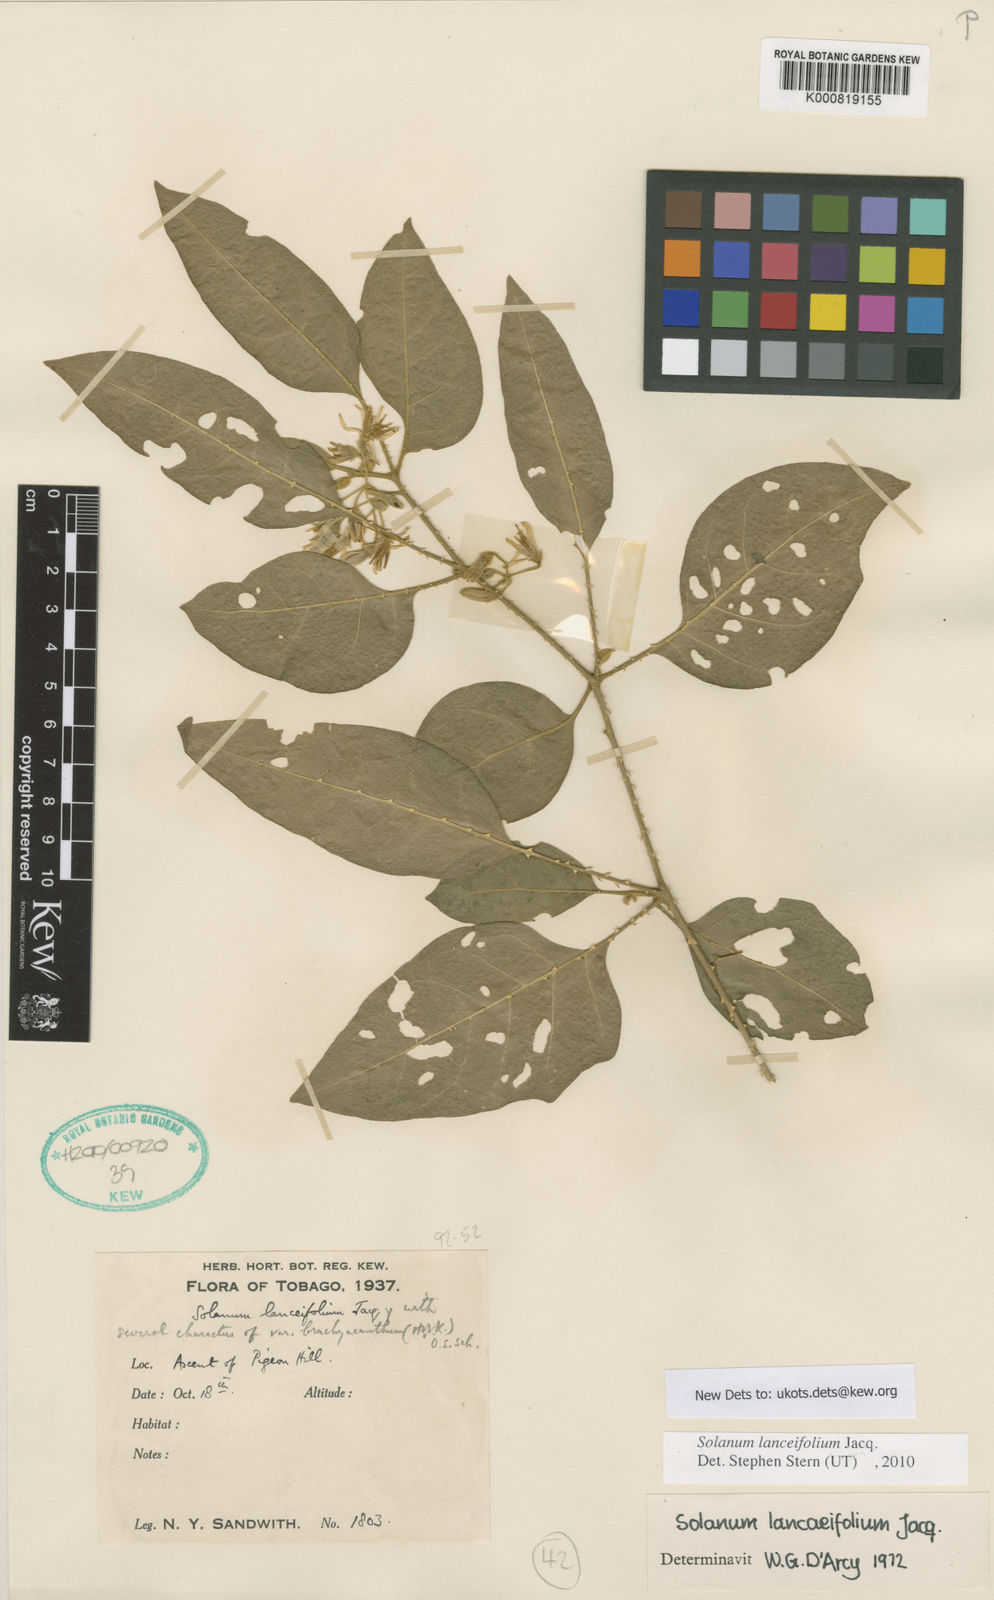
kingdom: Plantae
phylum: Tracheophyta
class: Magnoliopsida
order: Solanales
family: Solanaceae
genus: Solanum
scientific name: Solanum lanceifolium
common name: Lanceleaf nightshade
